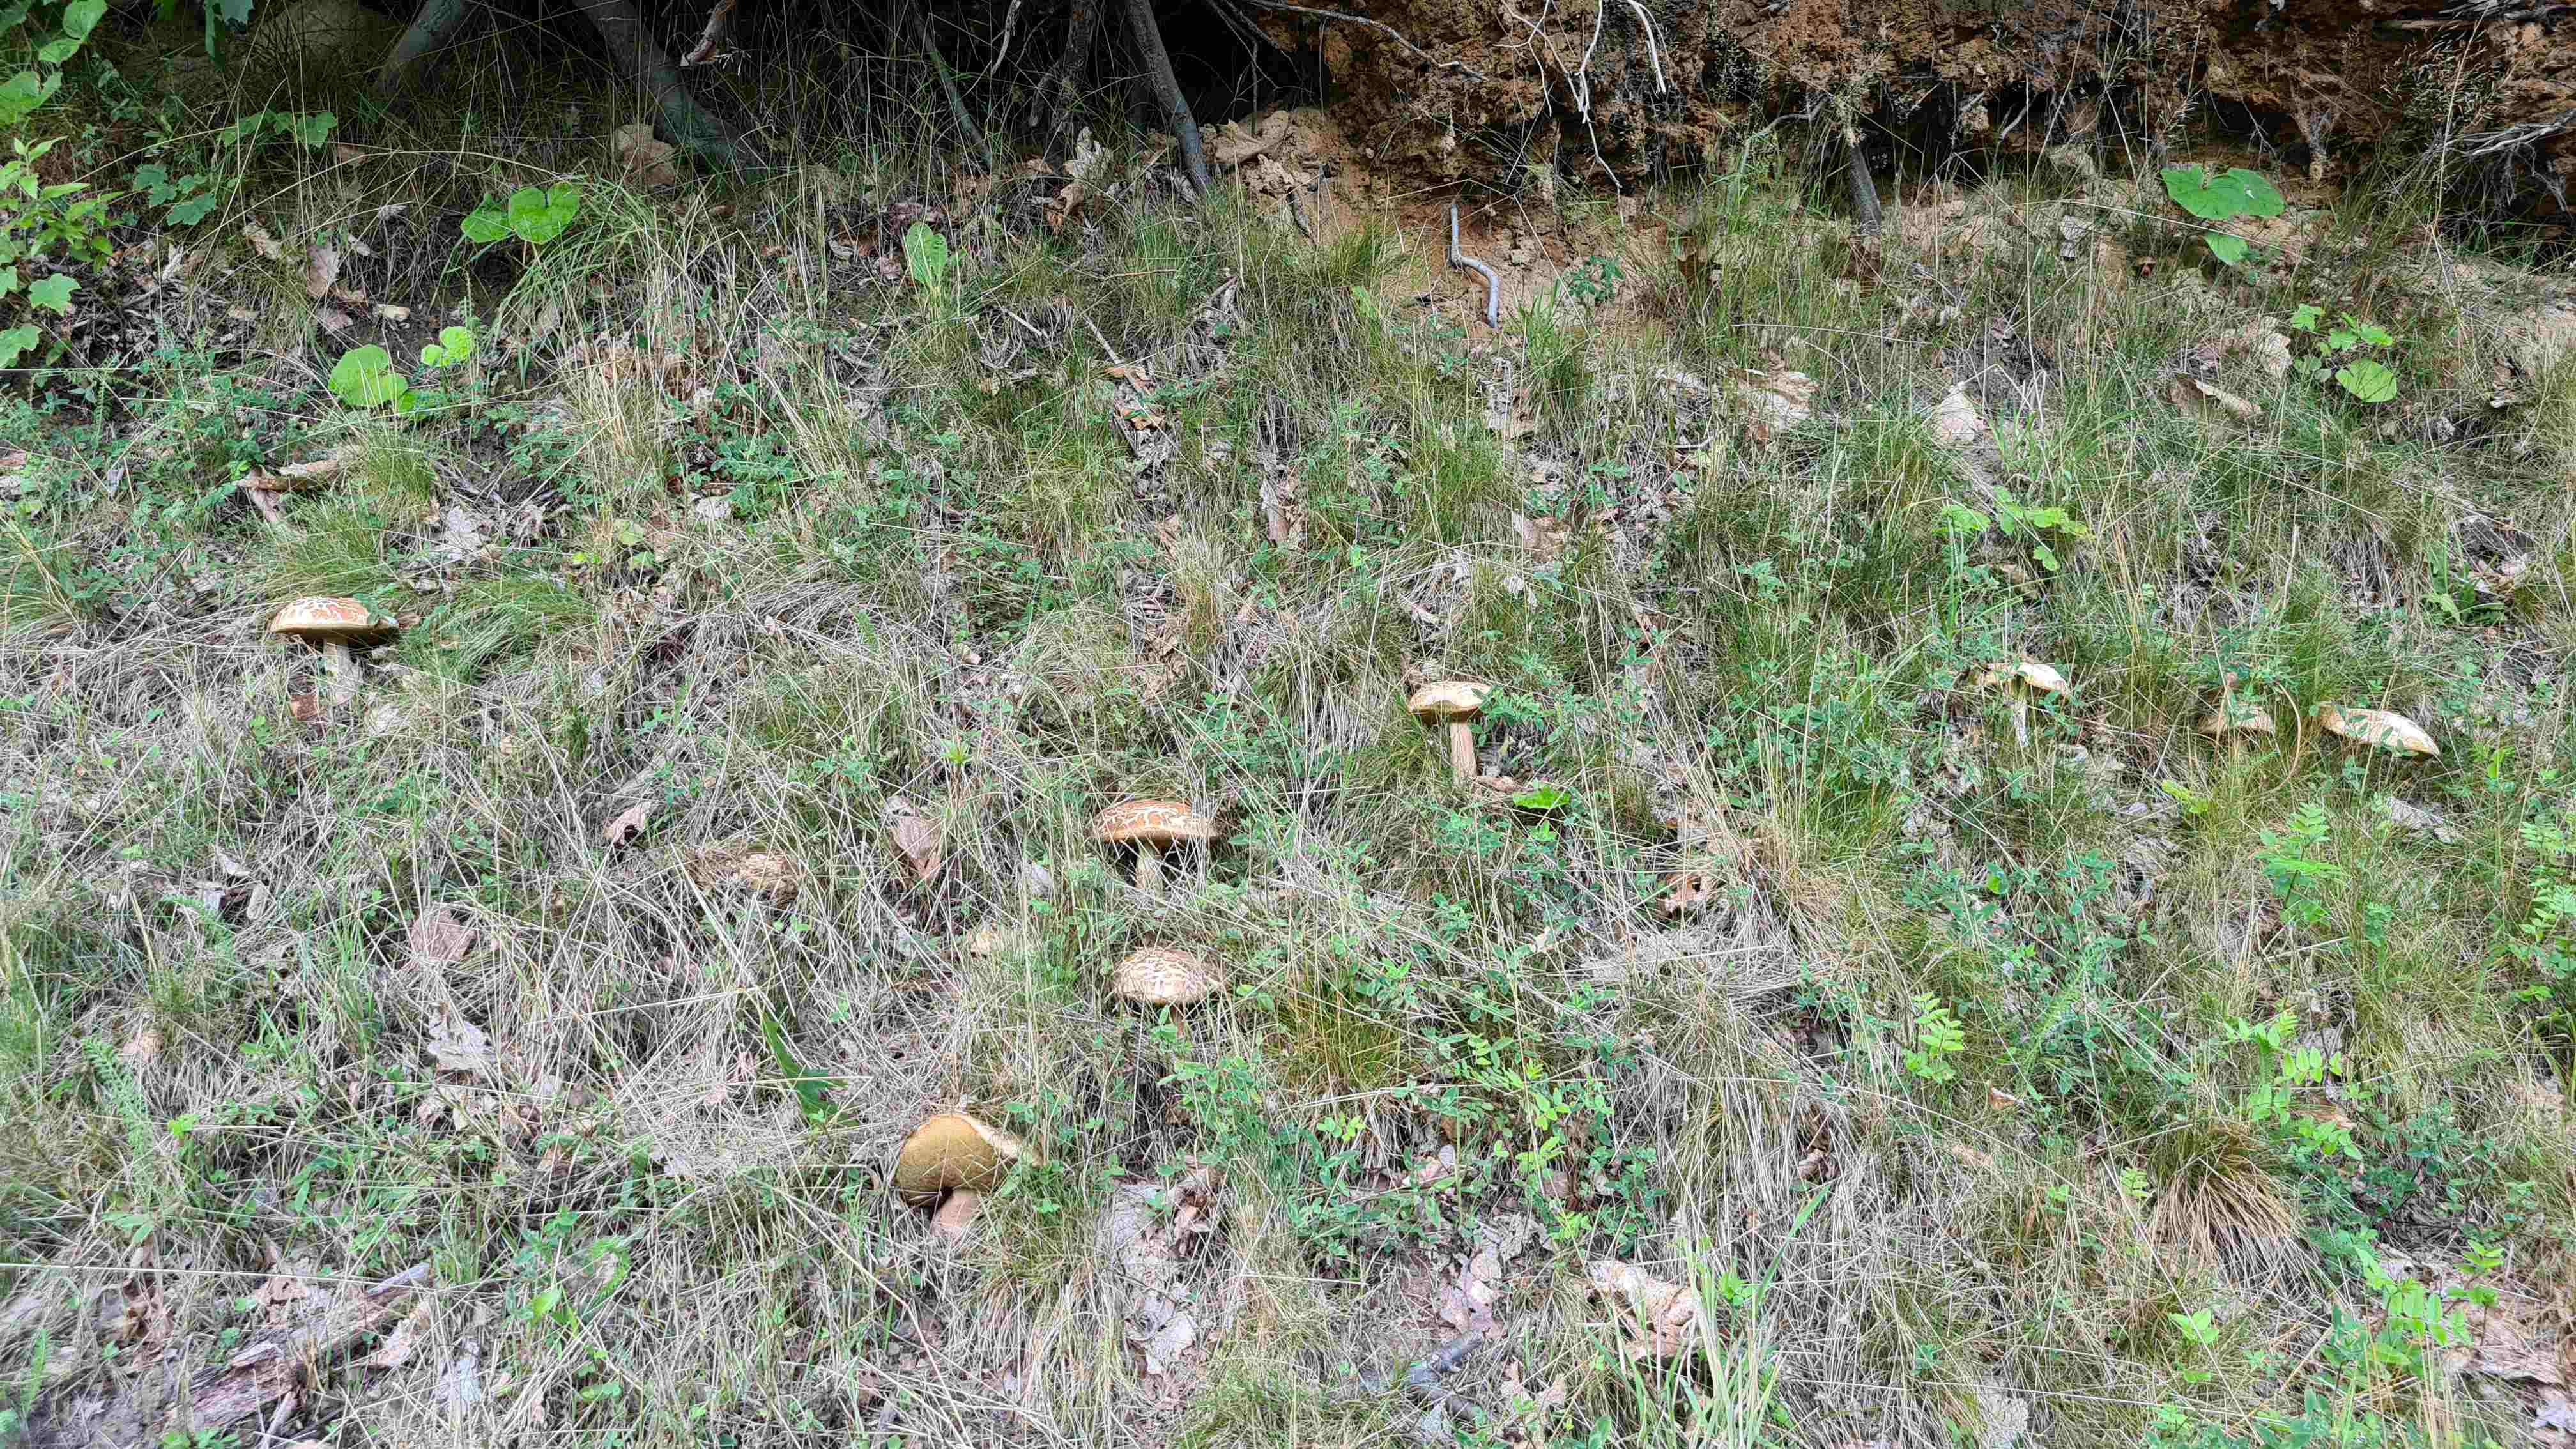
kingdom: Fungi
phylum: Basidiomycota
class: Agaricomycetes
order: Boletales
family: Boletaceae
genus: Boletus
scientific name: Boletus reticulatus
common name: sommer-rørhat
